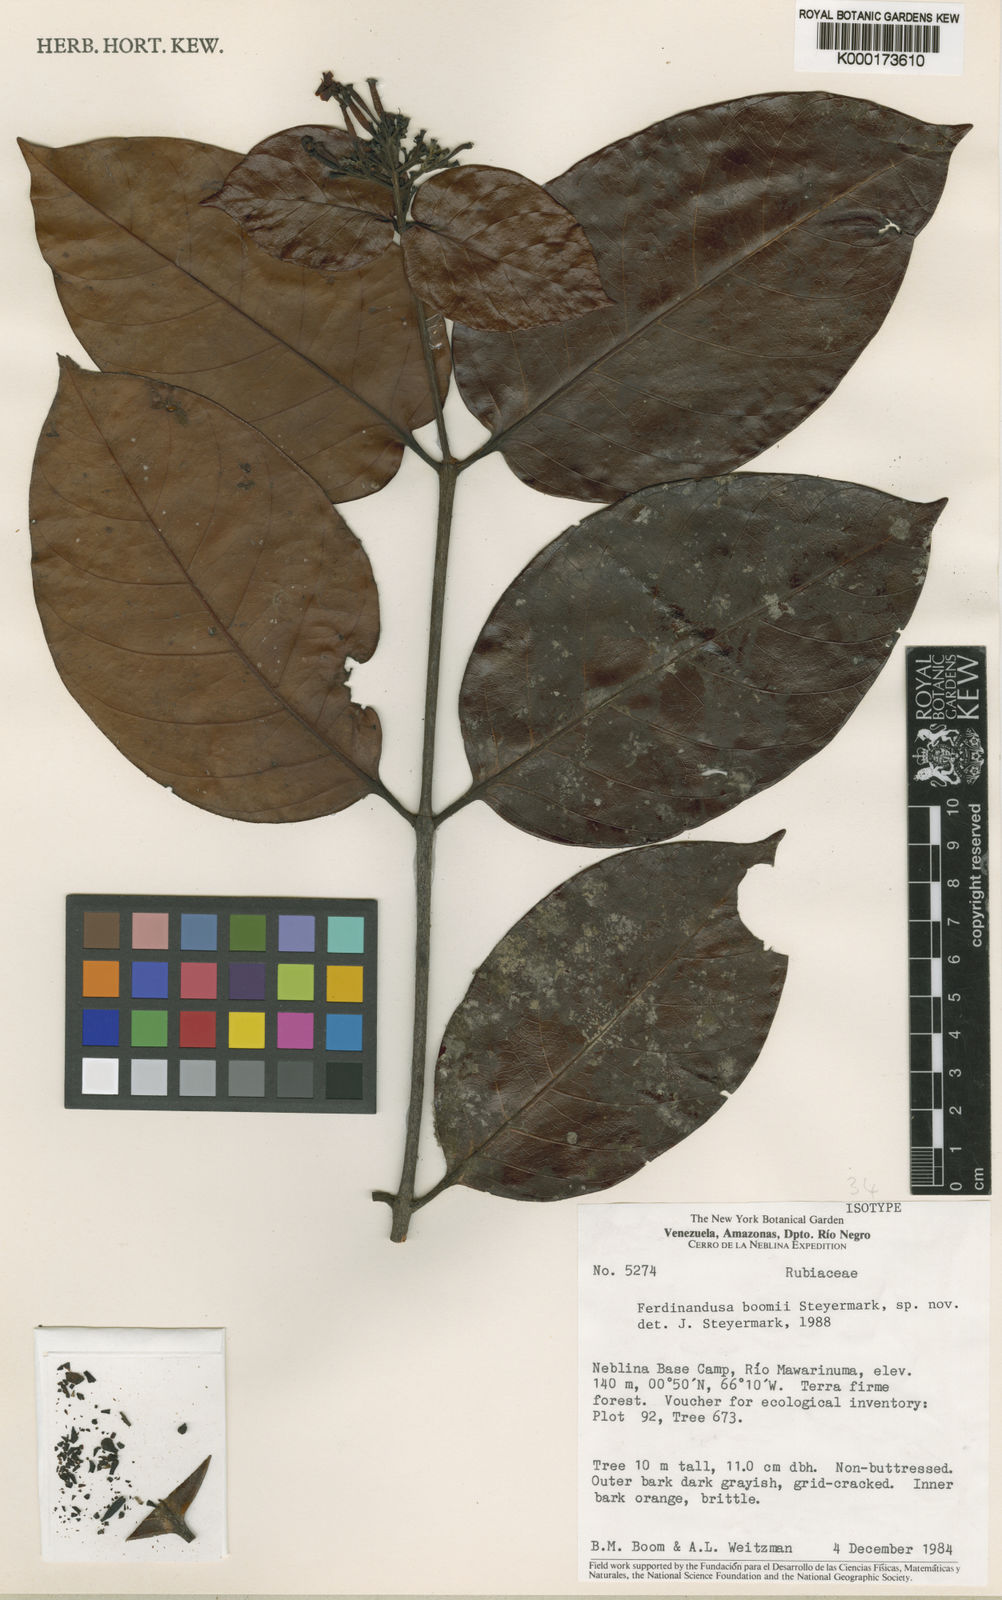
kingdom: Plantae
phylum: Tracheophyta
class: Magnoliopsida
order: Gentianales
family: Rubiaceae
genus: Ferdinandusa
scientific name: Ferdinandusa boomii
